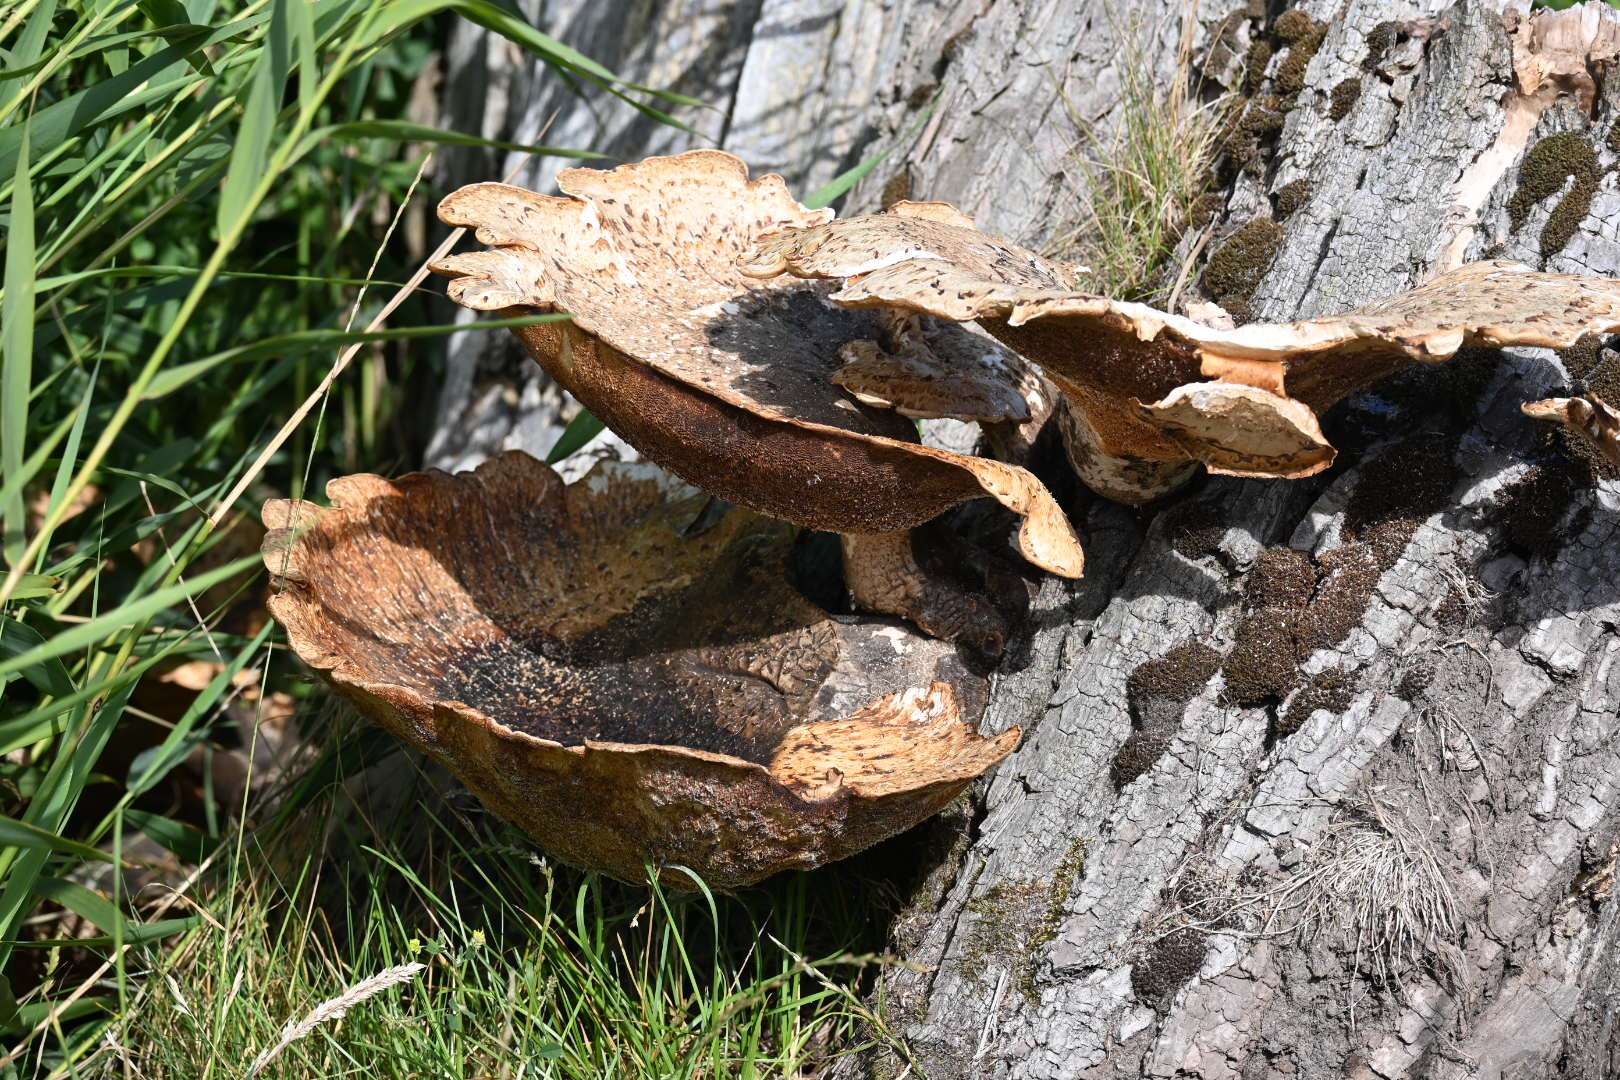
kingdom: Fungi
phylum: Basidiomycota
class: Agaricomycetes
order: Polyporales
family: Polyporaceae
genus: Cerioporus
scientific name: Cerioporus squamosus
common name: skællet stilkporesvamp
